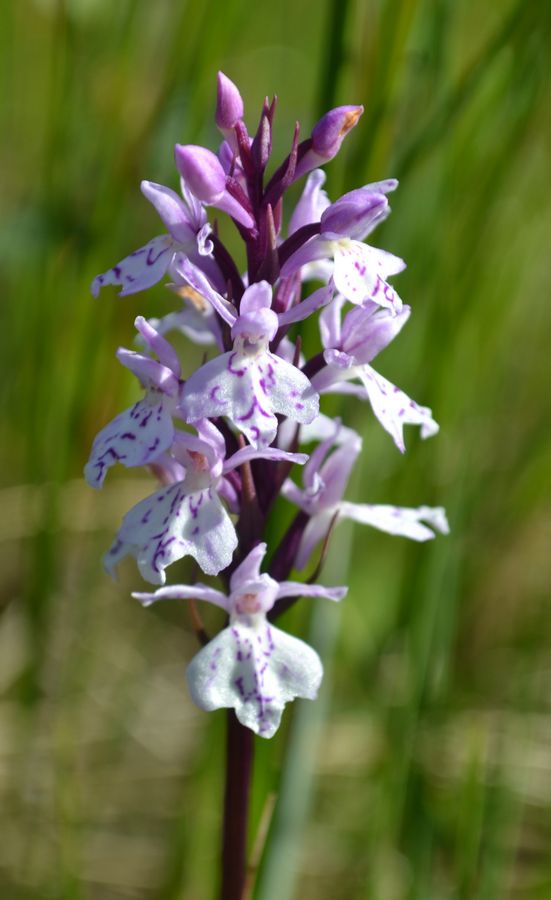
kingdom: Plantae
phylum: Tracheophyta
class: Liliopsida
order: Asparagales
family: Orchidaceae
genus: Dactylorhiza
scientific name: Dactylorhiza maculata
